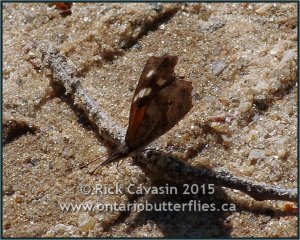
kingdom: Animalia
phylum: Arthropoda
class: Insecta
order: Lepidoptera
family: Nymphalidae
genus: Libytheana
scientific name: Libytheana carinenta
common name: American Snout
